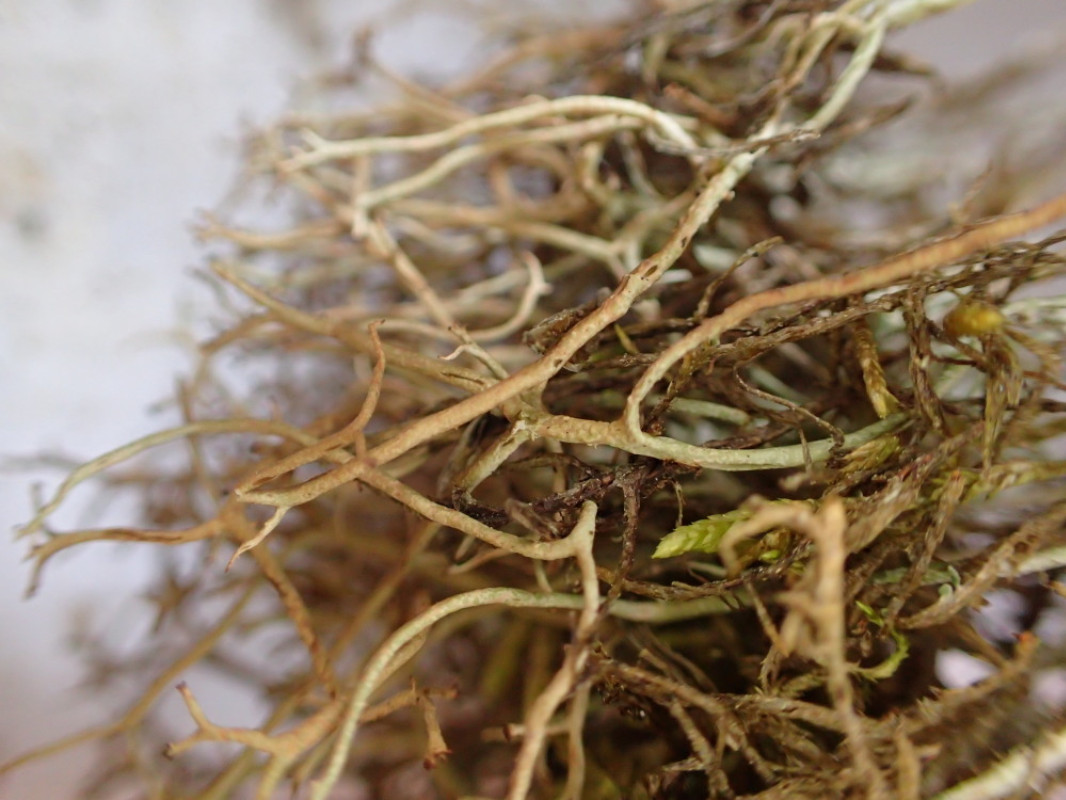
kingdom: Fungi
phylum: Ascomycota
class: Lecanoromycetes
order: Lecanorales
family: Cladoniaceae
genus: Cladonia
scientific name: Cladonia furcata
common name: kløftet bægerlav
